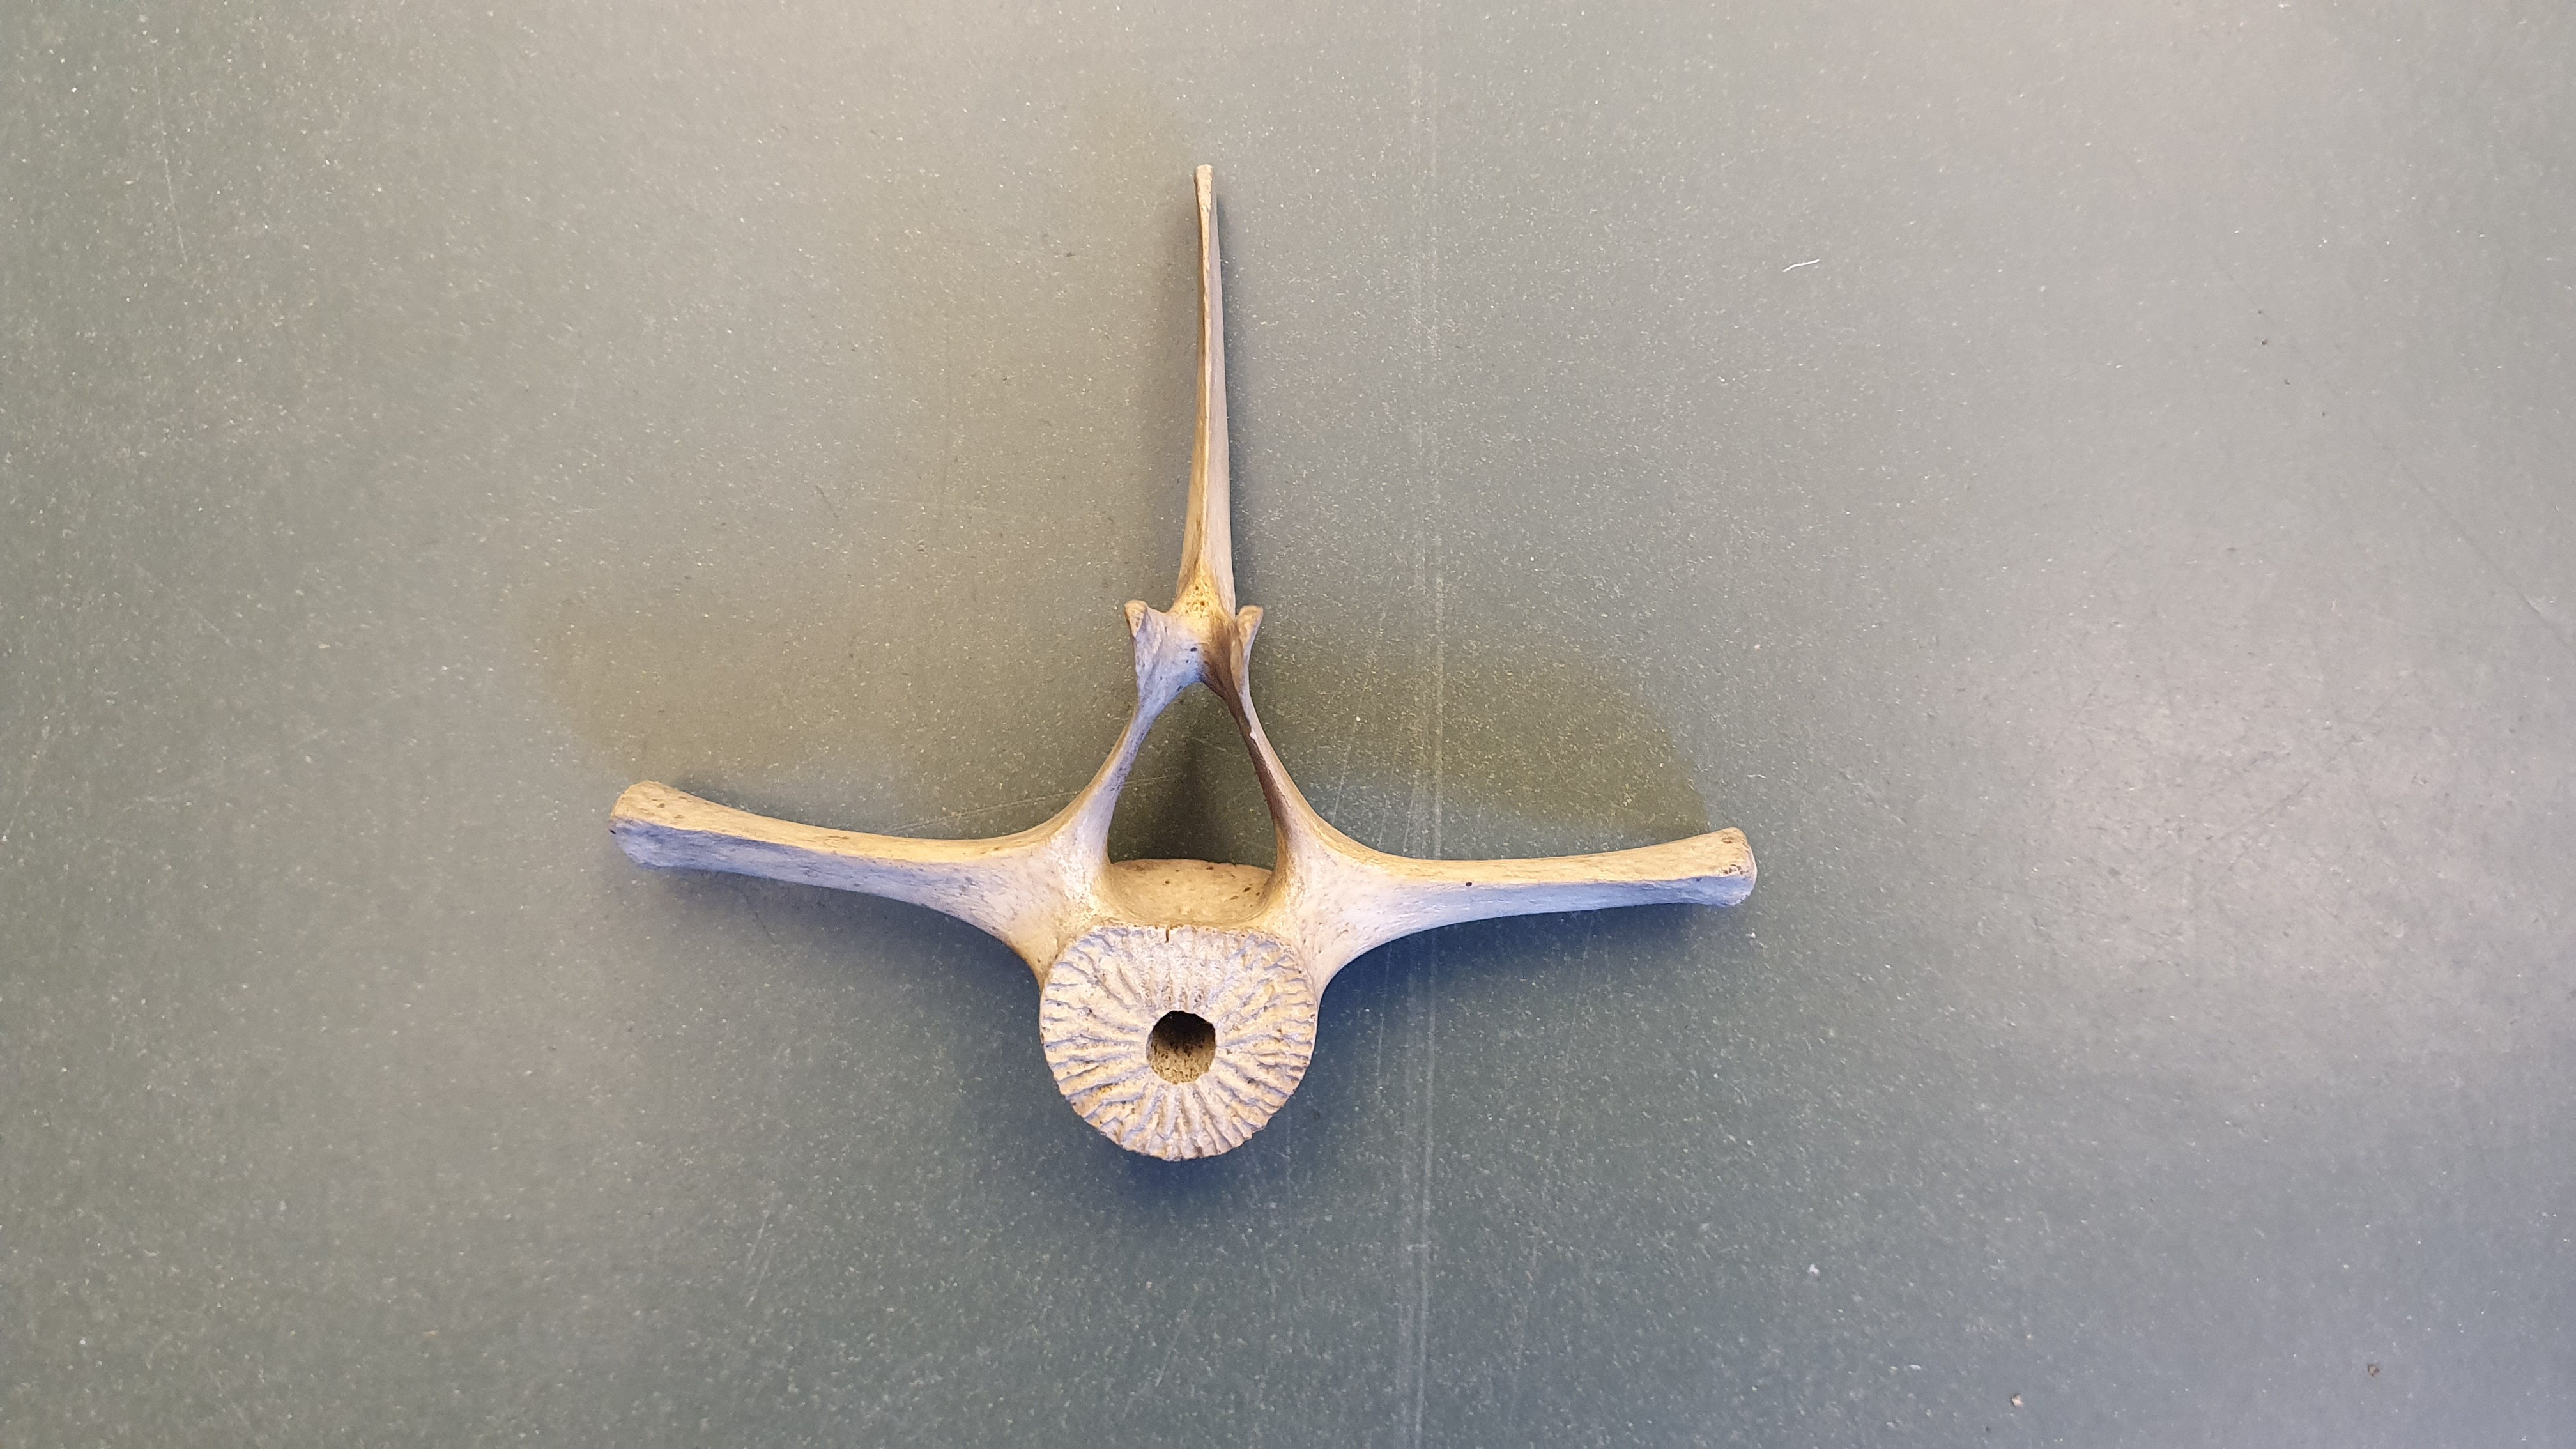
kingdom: Animalia
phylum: Chordata
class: Mammalia
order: Cetacea
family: Delphinidae
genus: Delphinus
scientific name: Delphinus delphis
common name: Common dolphin
